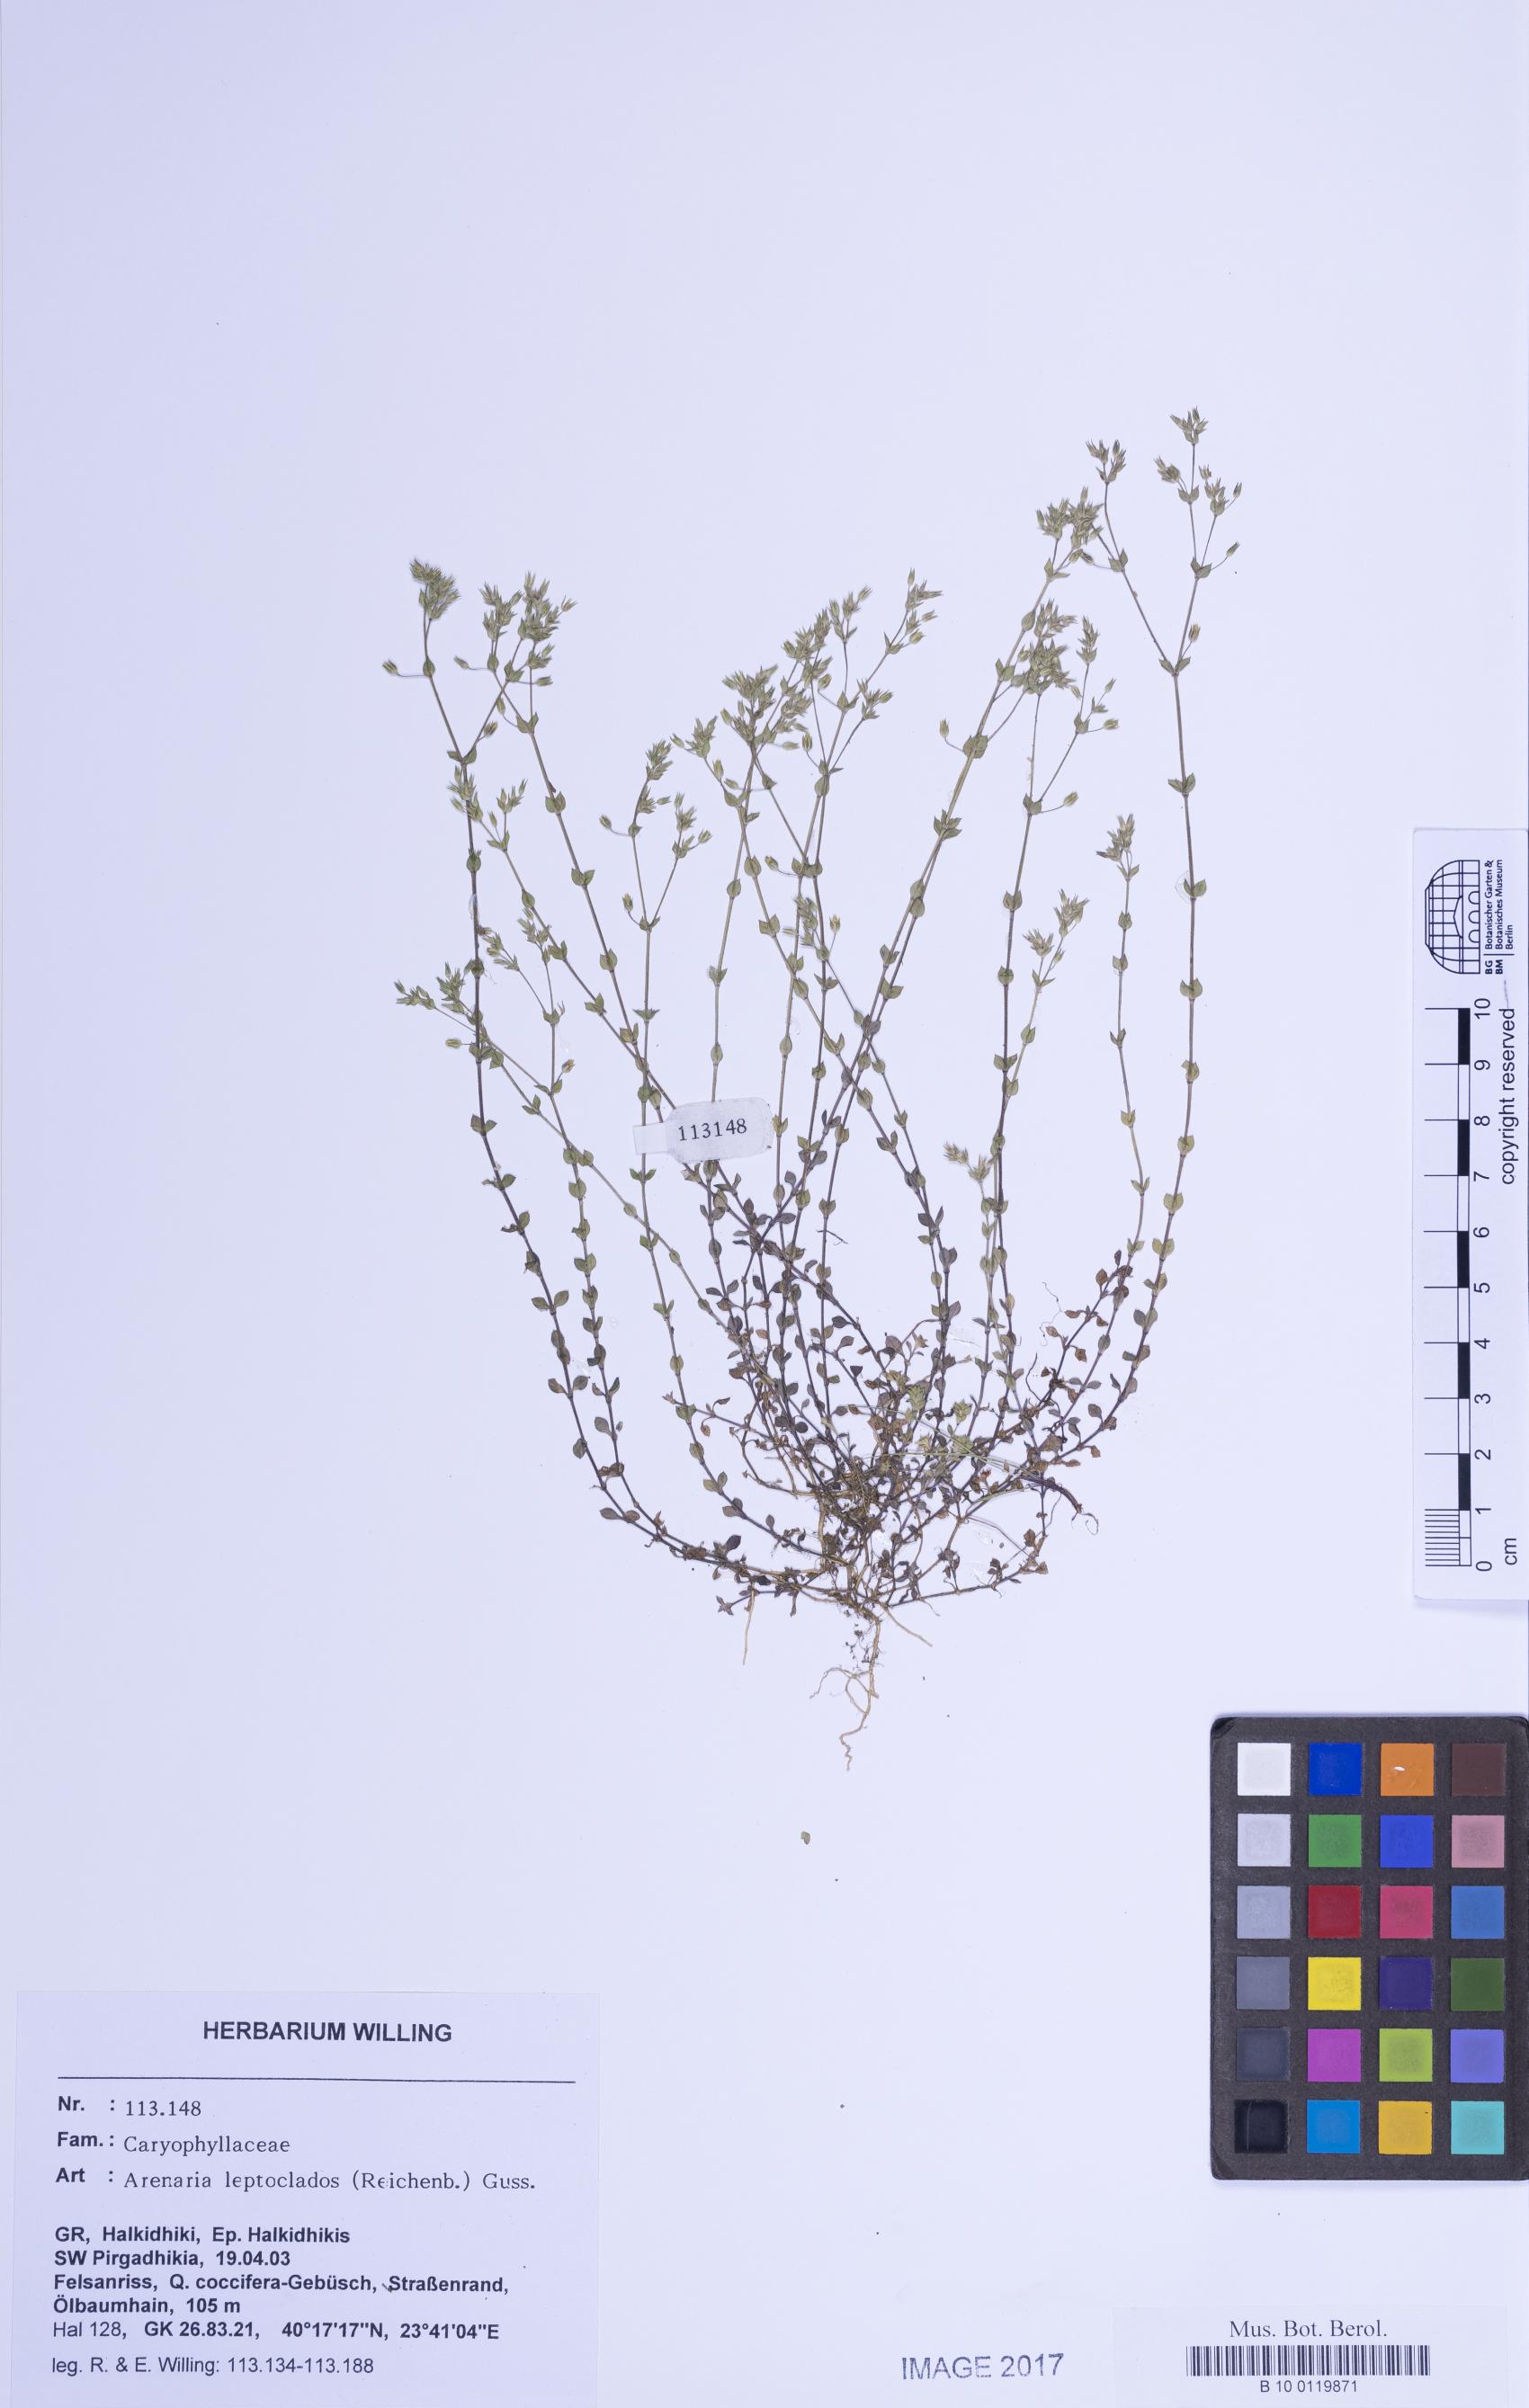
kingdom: Plantae
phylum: Tracheophyta
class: Magnoliopsida
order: Caryophyllales
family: Caryophyllaceae
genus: Arenaria
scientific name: Arenaria leptoclados
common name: Thyme-leaved sandwort
